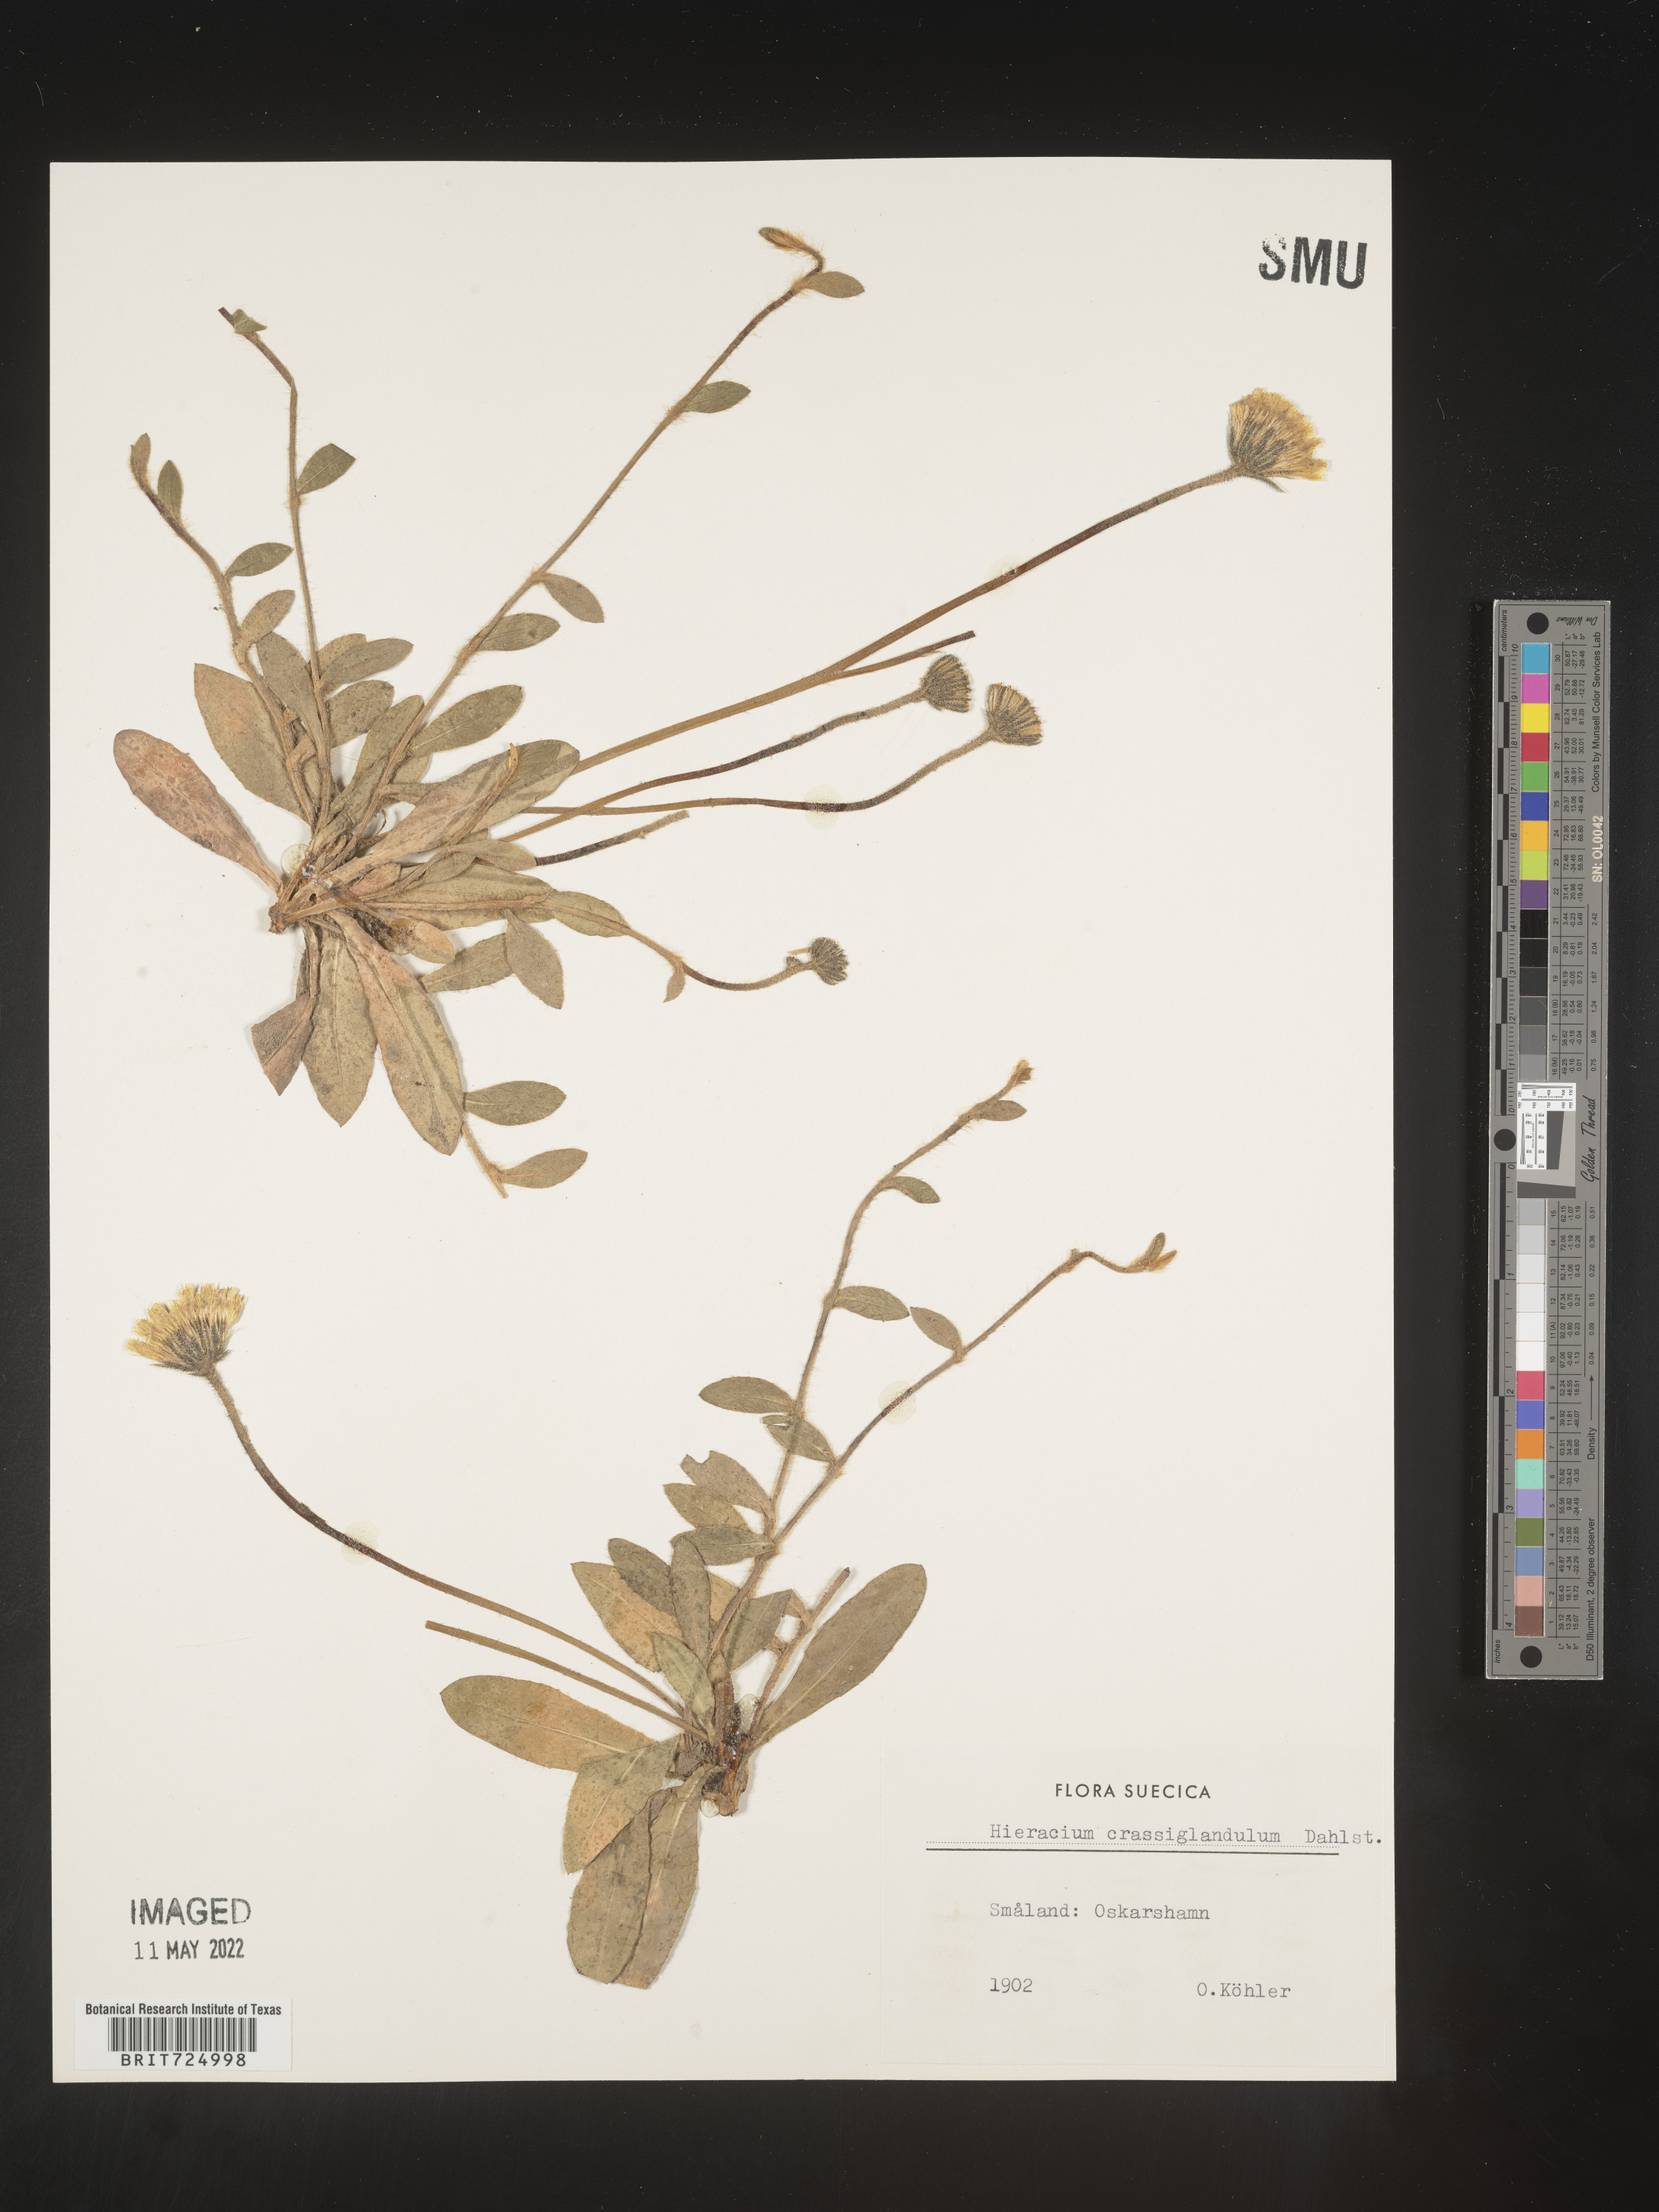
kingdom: Plantae
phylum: Tracheophyta
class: Magnoliopsida
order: Asterales
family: Asteraceae
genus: Hieracium
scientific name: Hieracium
